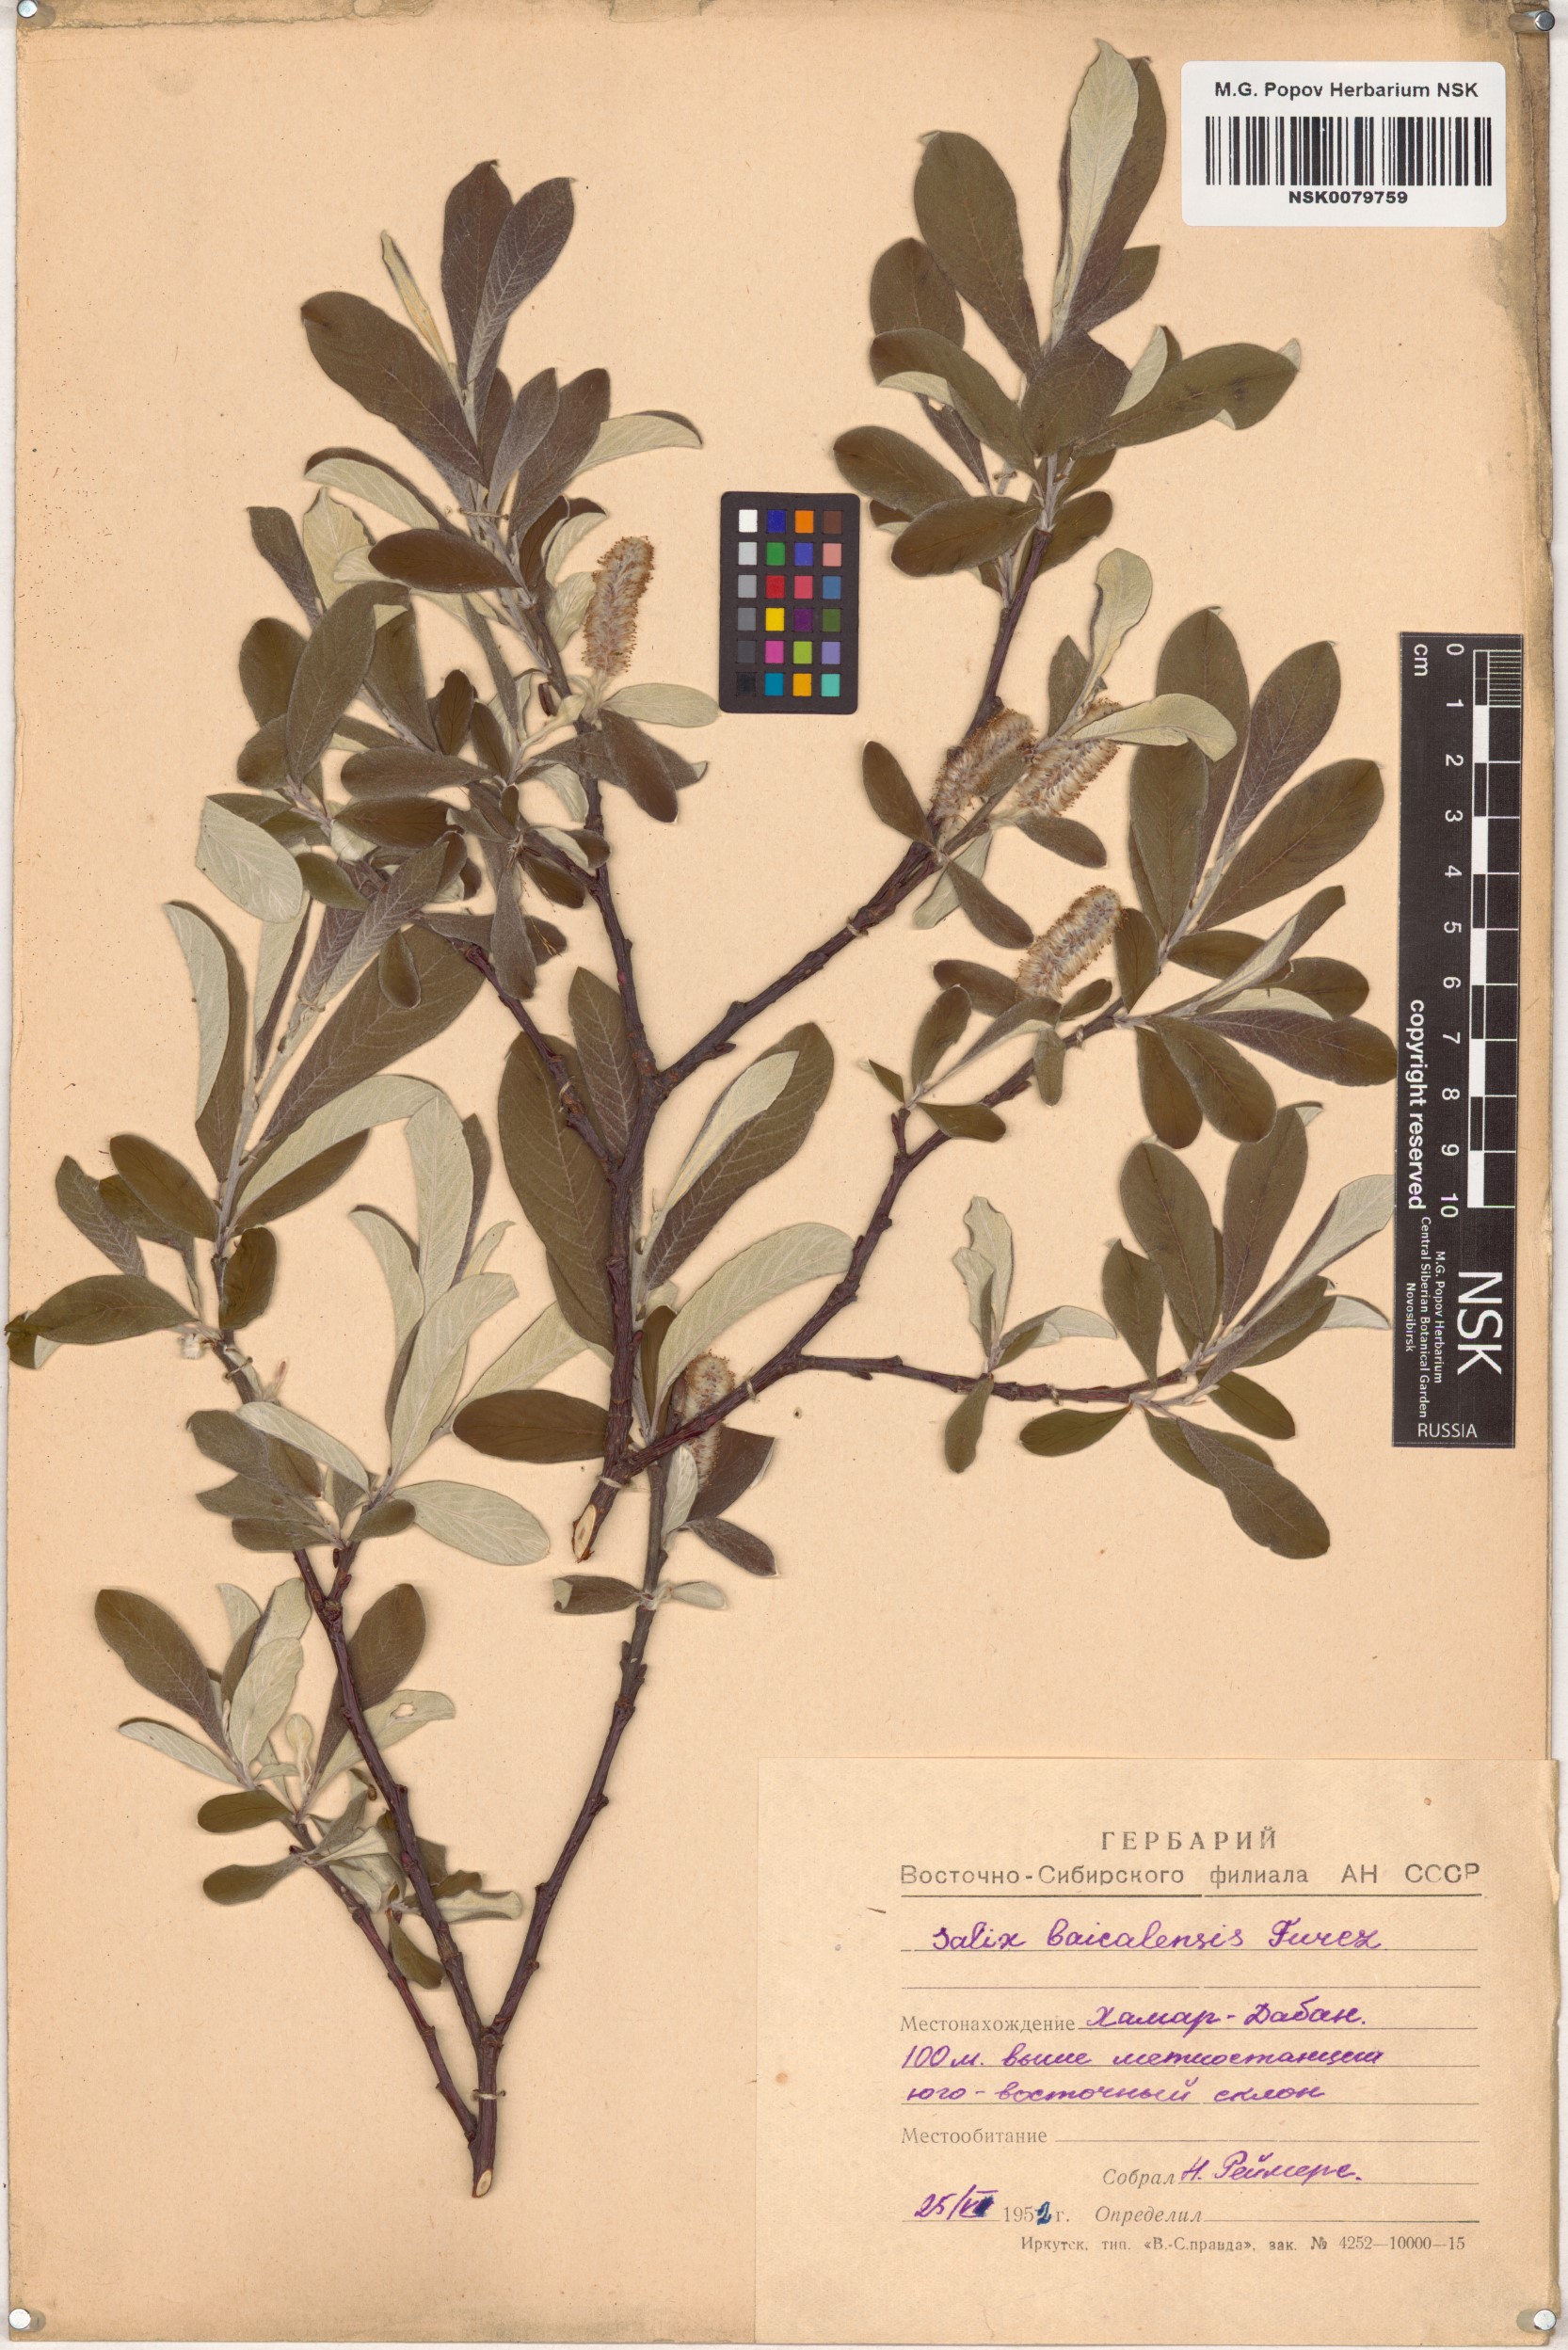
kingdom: Plantae
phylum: Tracheophyta
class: Magnoliopsida
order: Malpighiales
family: Salicaceae
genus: Salix
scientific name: Salix krylovii
